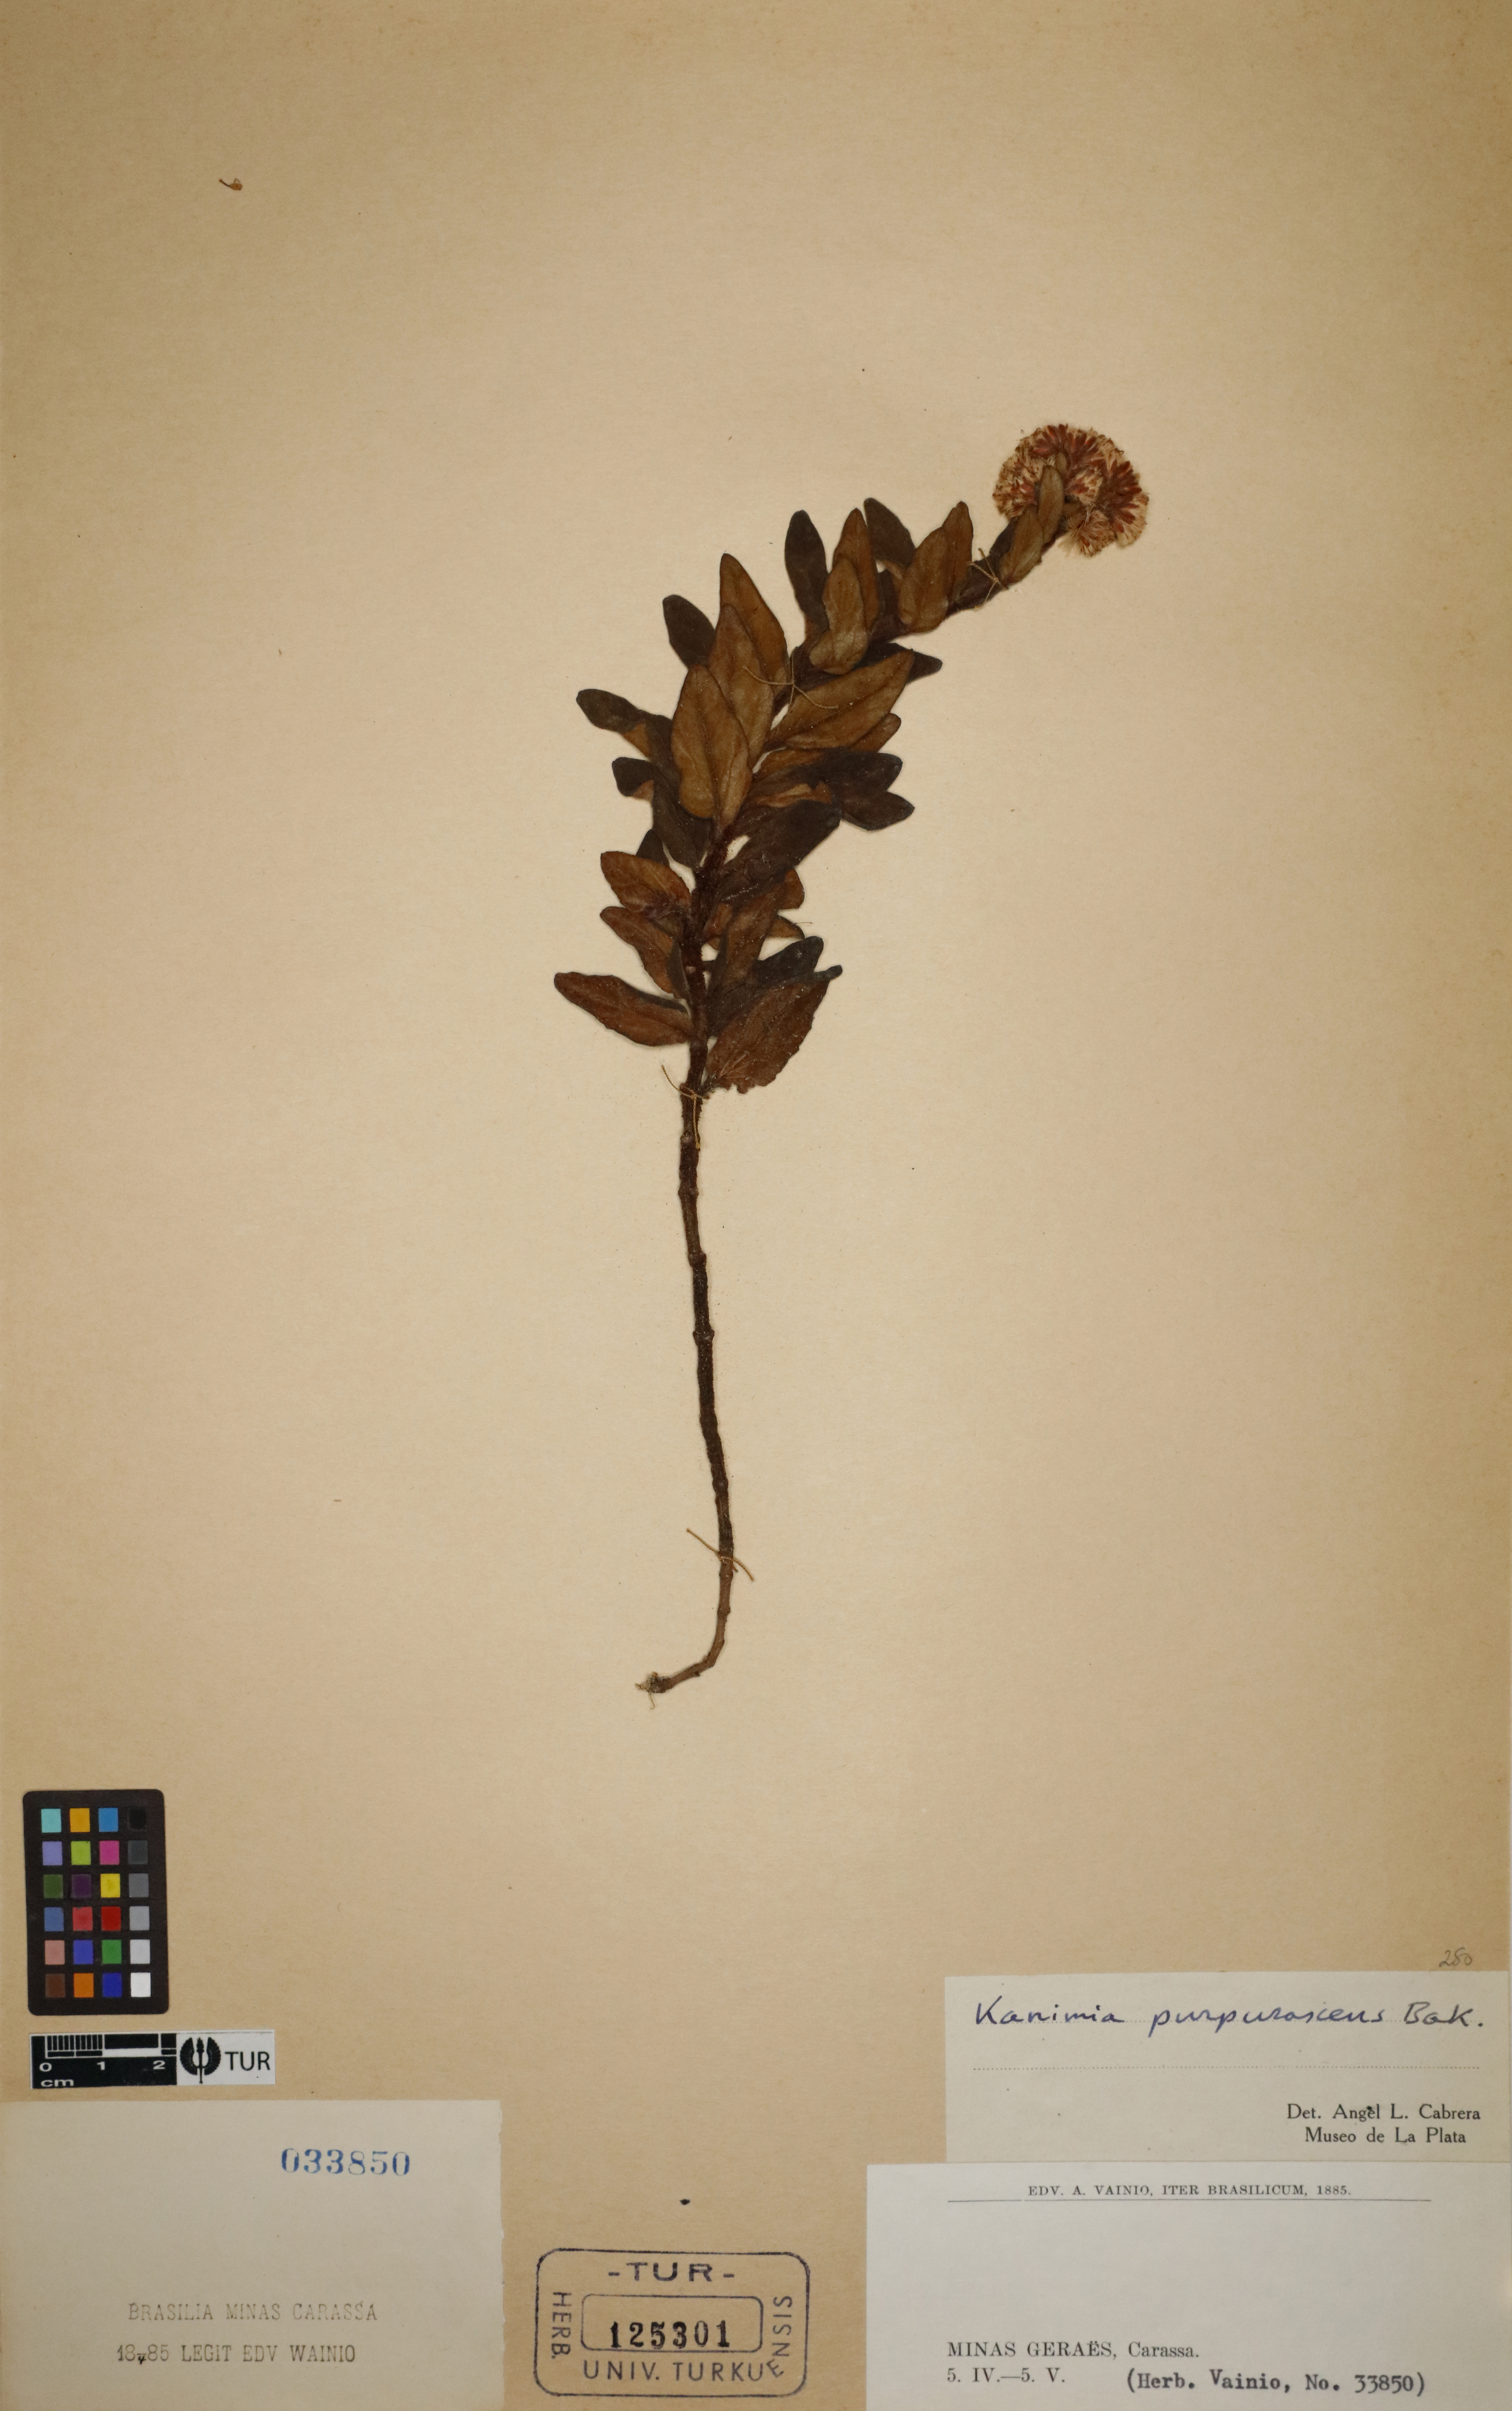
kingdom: Plantae
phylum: Tracheophyta
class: Magnoliopsida
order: Asterales
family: Asteraceae
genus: Mikania
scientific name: Mikania purpurascens
